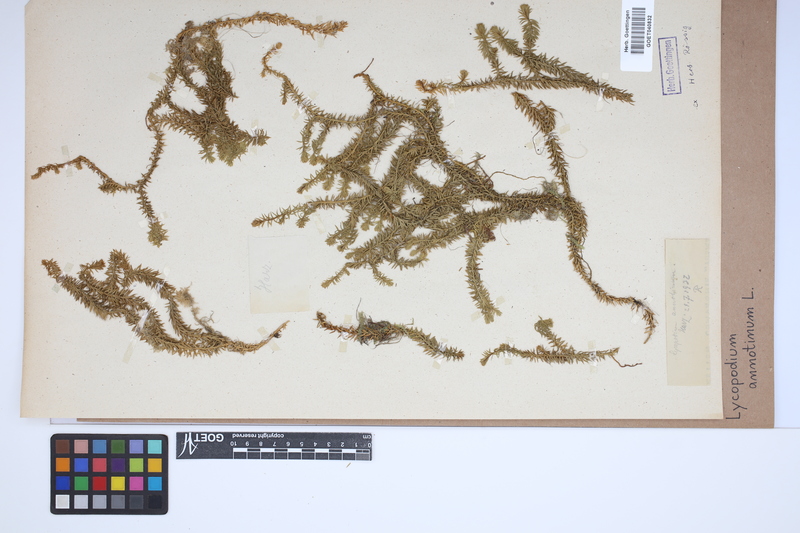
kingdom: Plantae
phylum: Tracheophyta
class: Lycopodiopsida
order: Lycopodiales
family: Lycopodiaceae
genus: Spinulum
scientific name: Spinulum annotinum
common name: Interrupted club-moss
